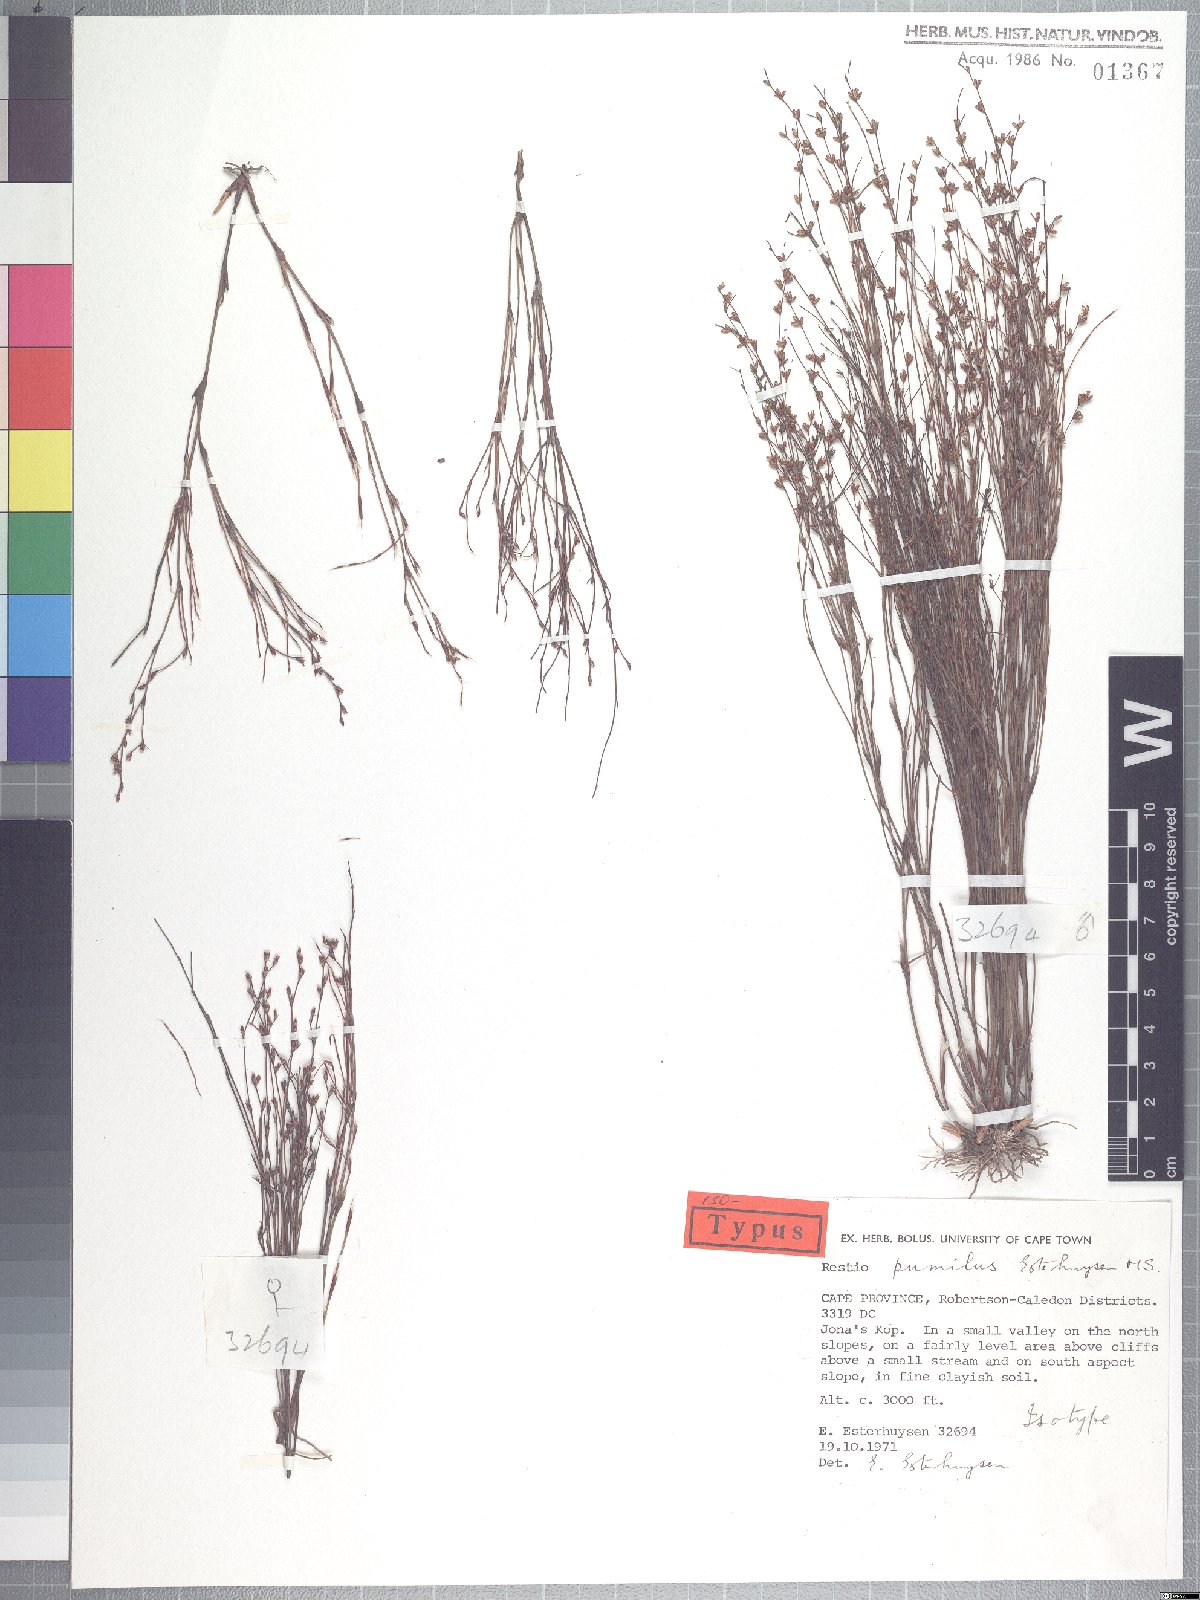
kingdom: Plantae
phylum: Tracheophyta
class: Liliopsida
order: Poales
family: Restionaceae
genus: Restio
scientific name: Restio pumilus
